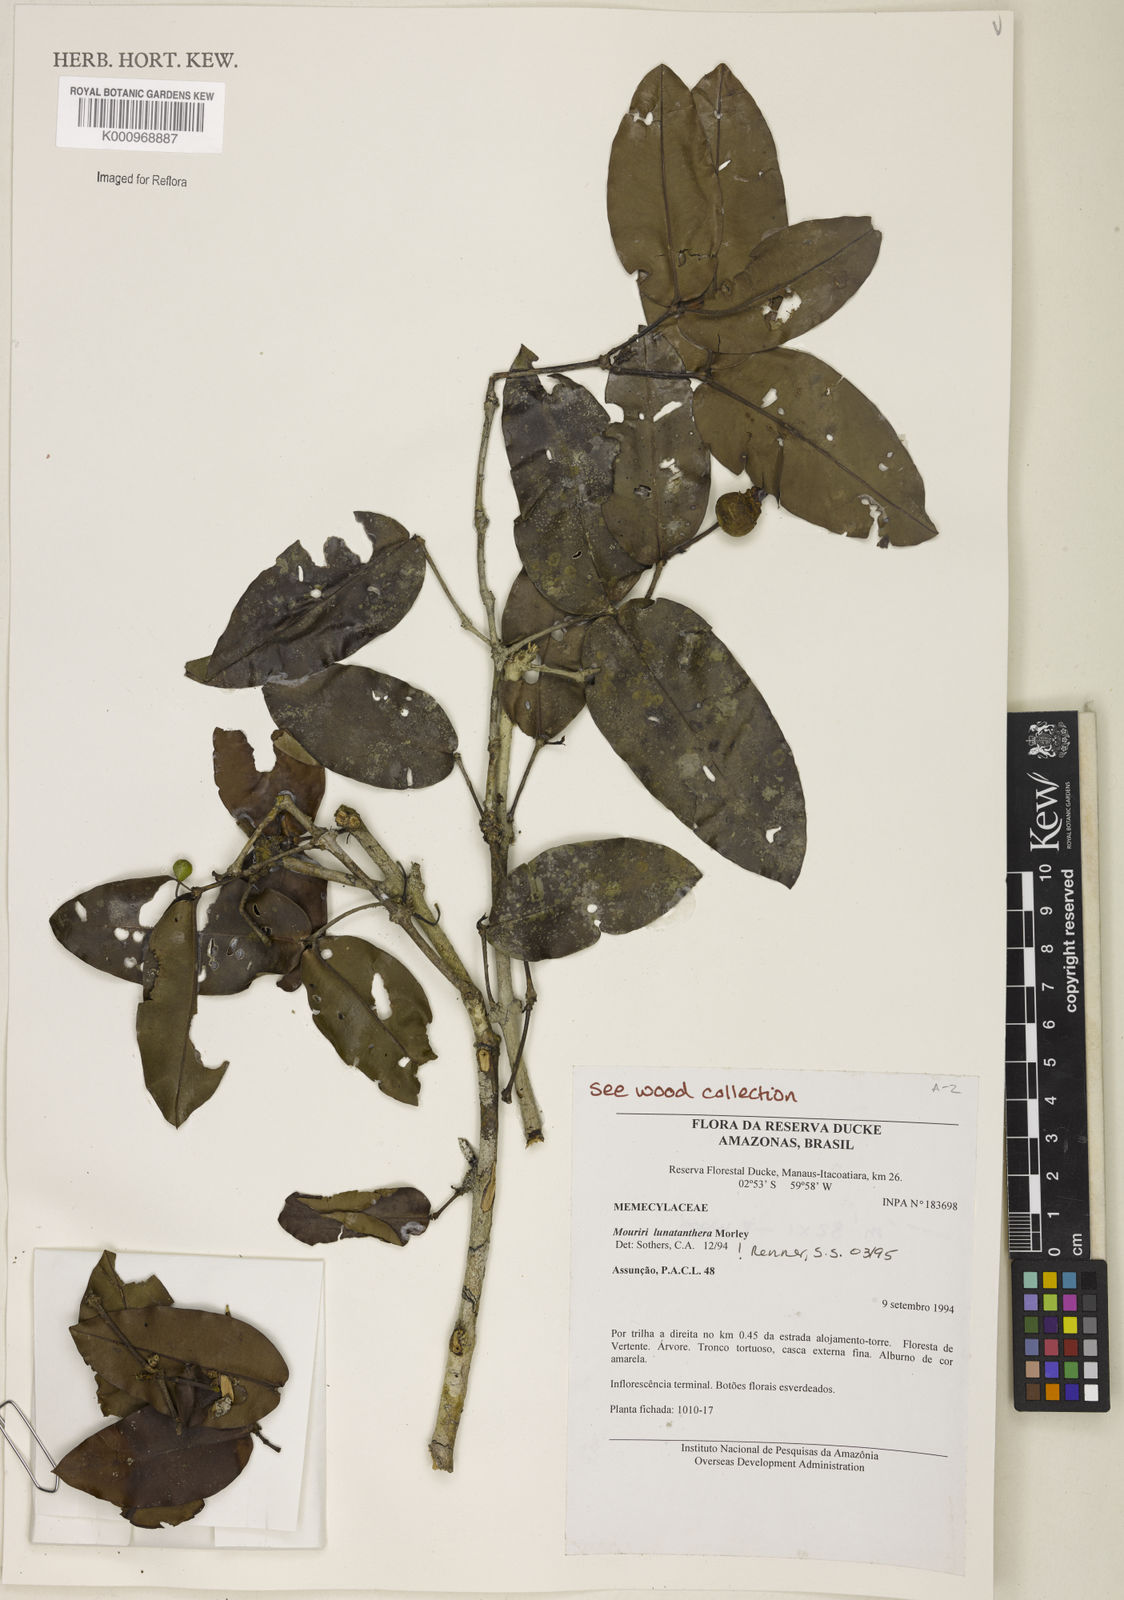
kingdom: Plantae
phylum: Tracheophyta
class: Magnoliopsida
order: Myrtales
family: Melastomataceae
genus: Mouriri
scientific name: Mouriri
